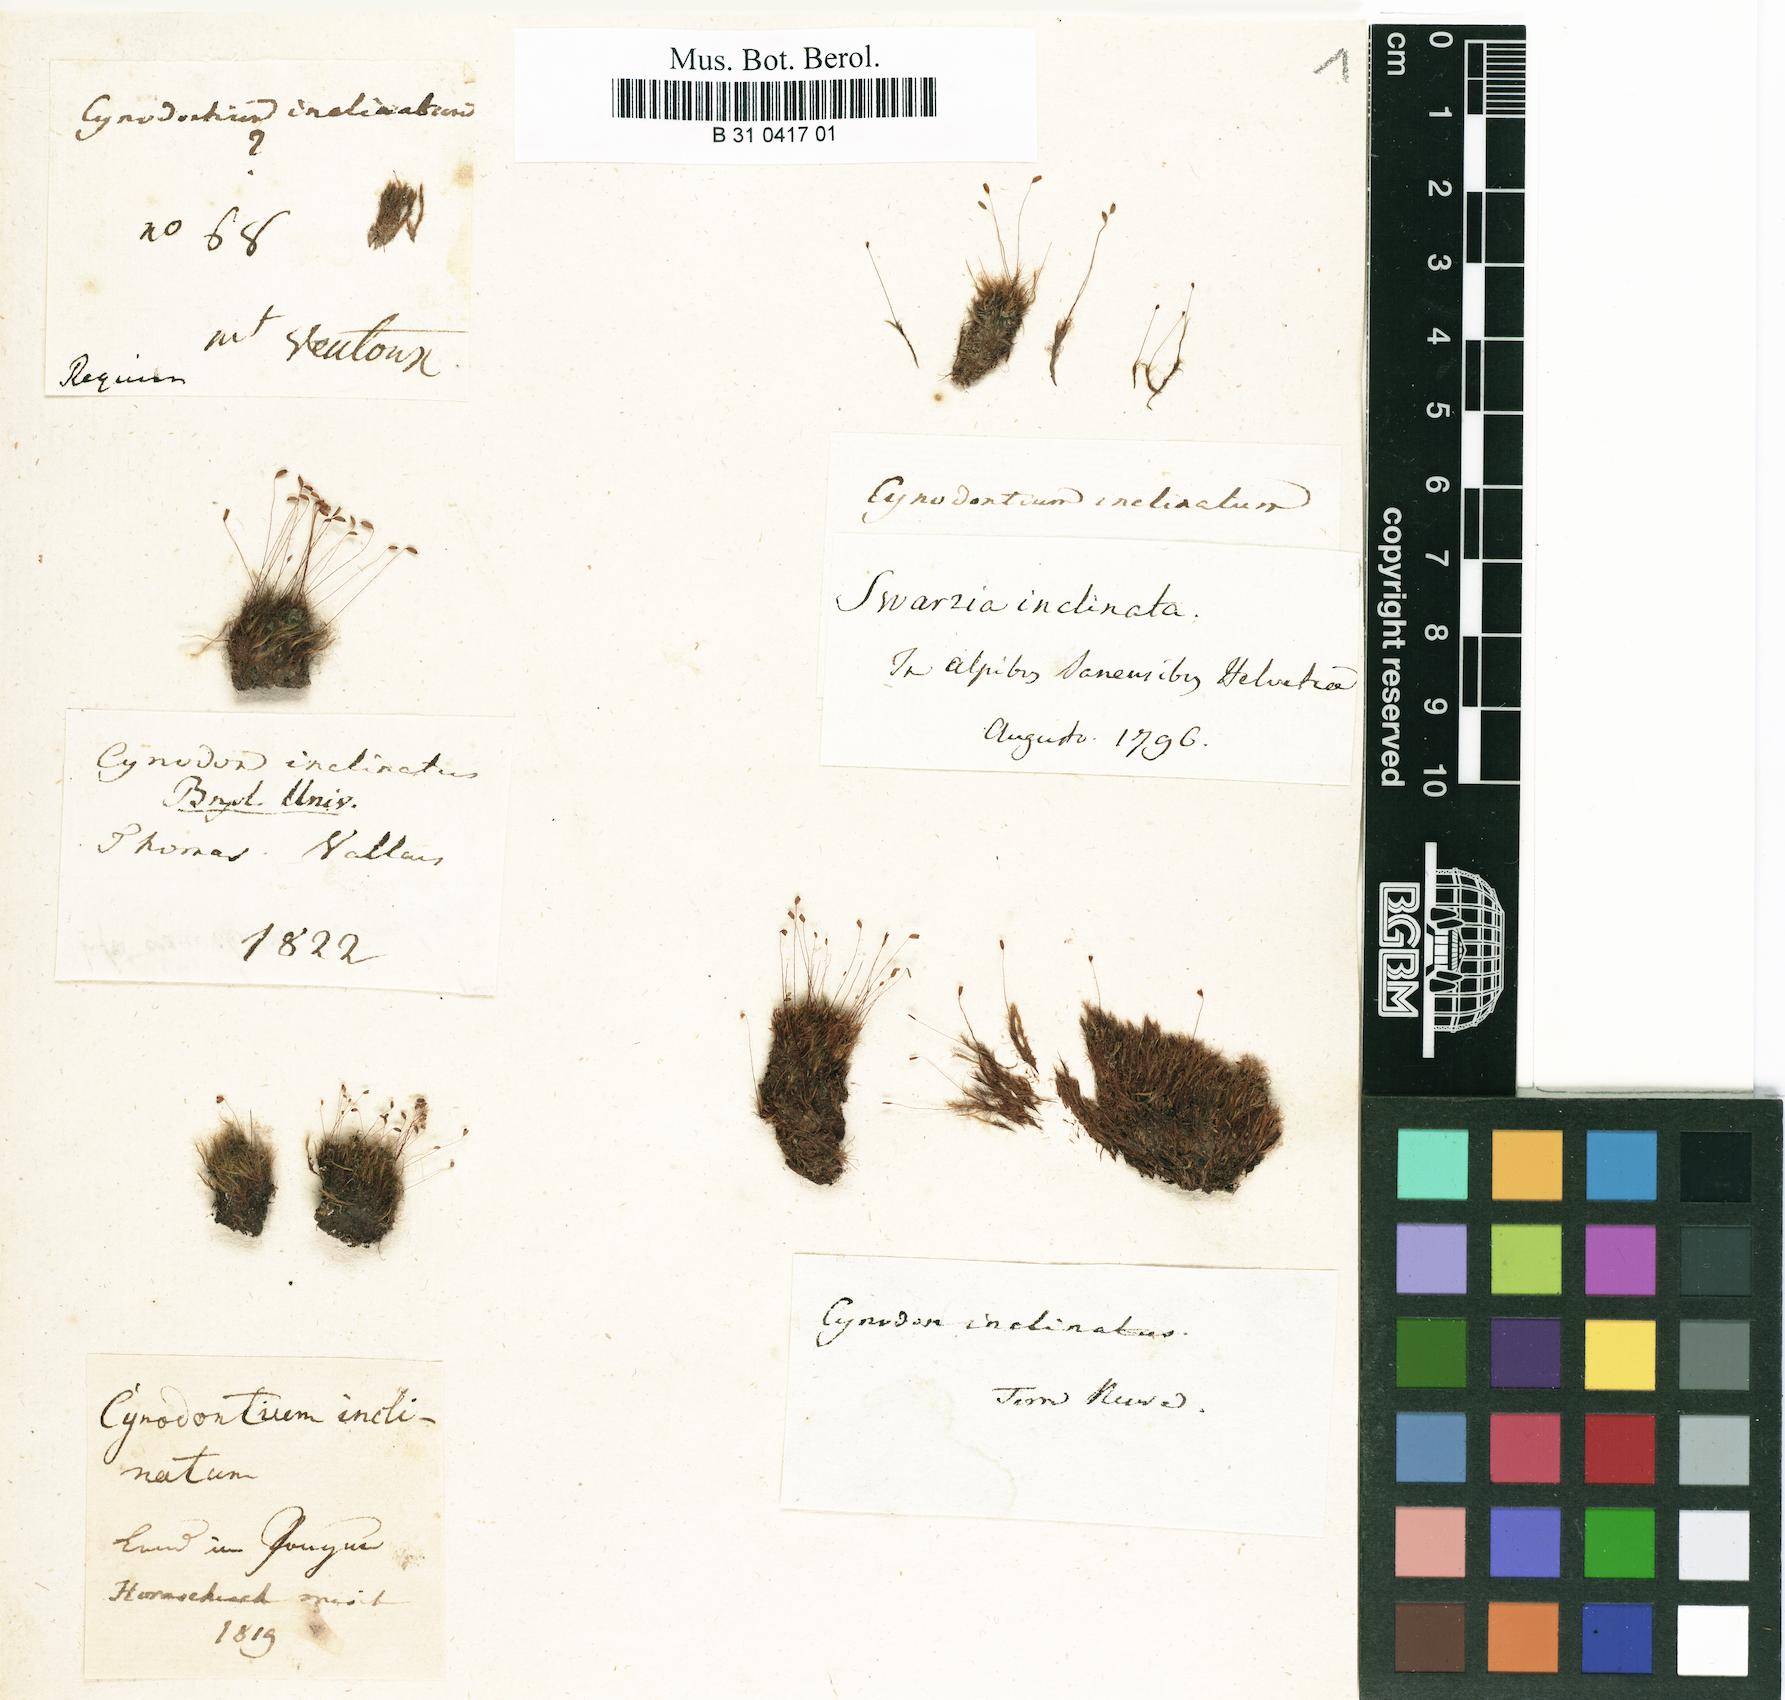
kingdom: Plantae
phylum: Bryophyta
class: Bryopsida
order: Scouleriales
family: Distichiaceae
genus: Distichium
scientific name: Distichium inclinatum
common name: Inclined iris moss
